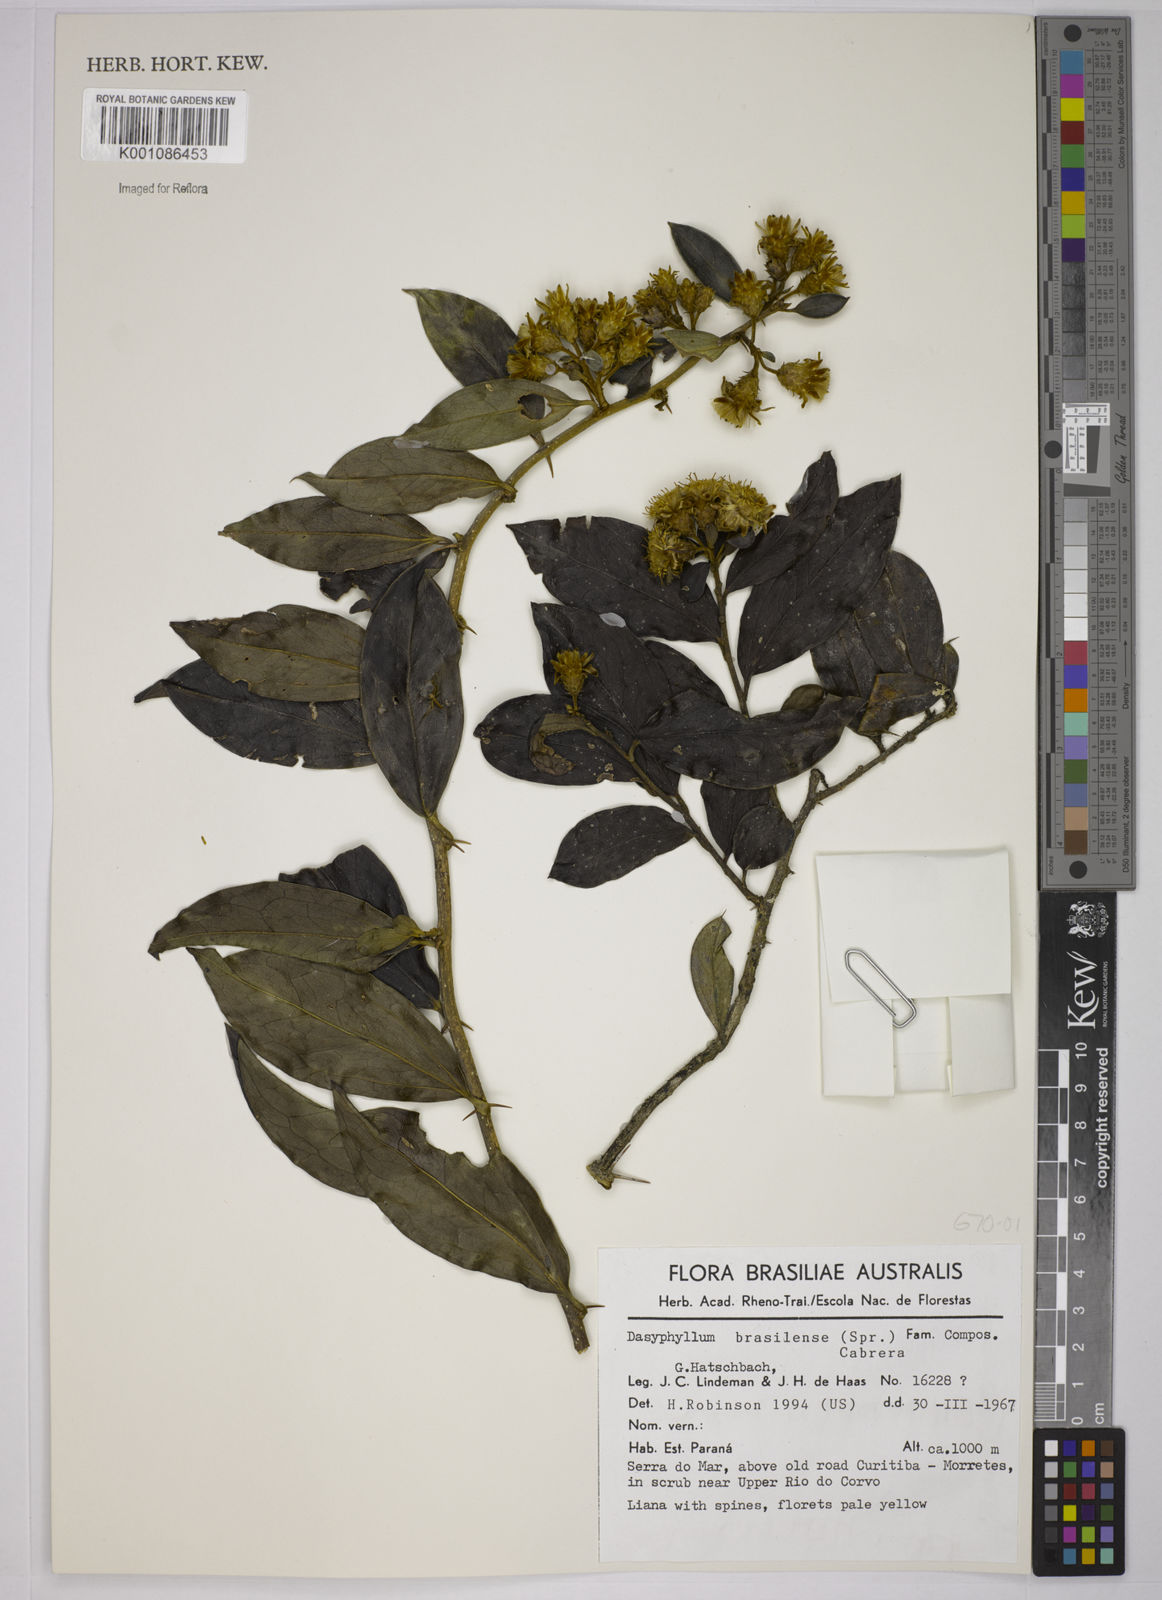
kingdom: Plantae
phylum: Tracheophyta
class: Magnoliopsida
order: Asterales
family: Asteraceae
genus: Dasyphyllum
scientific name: Dasyphyllum brasiliense
